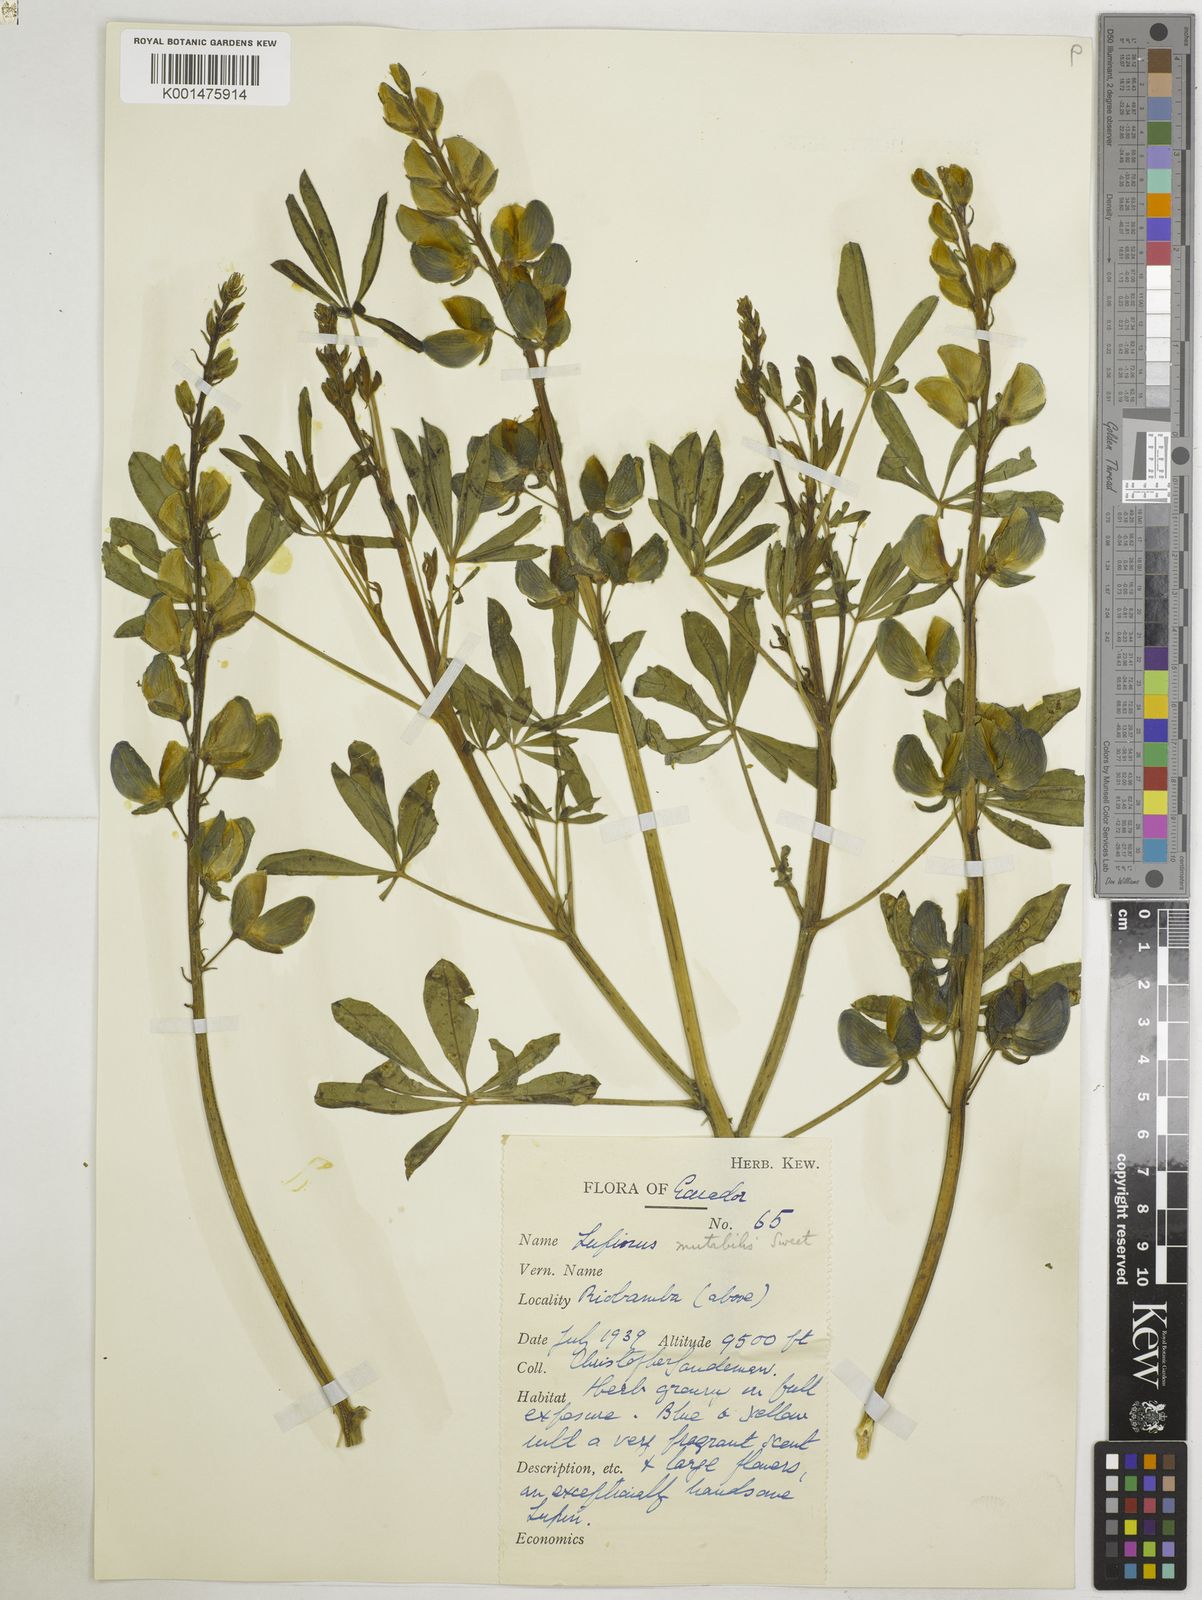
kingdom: Plantae
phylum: Tracheophyta
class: Magnoliopsida
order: Fabales
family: Fabaceae
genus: Lupinus
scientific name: Lupinus mutabilis
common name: South american lupin
